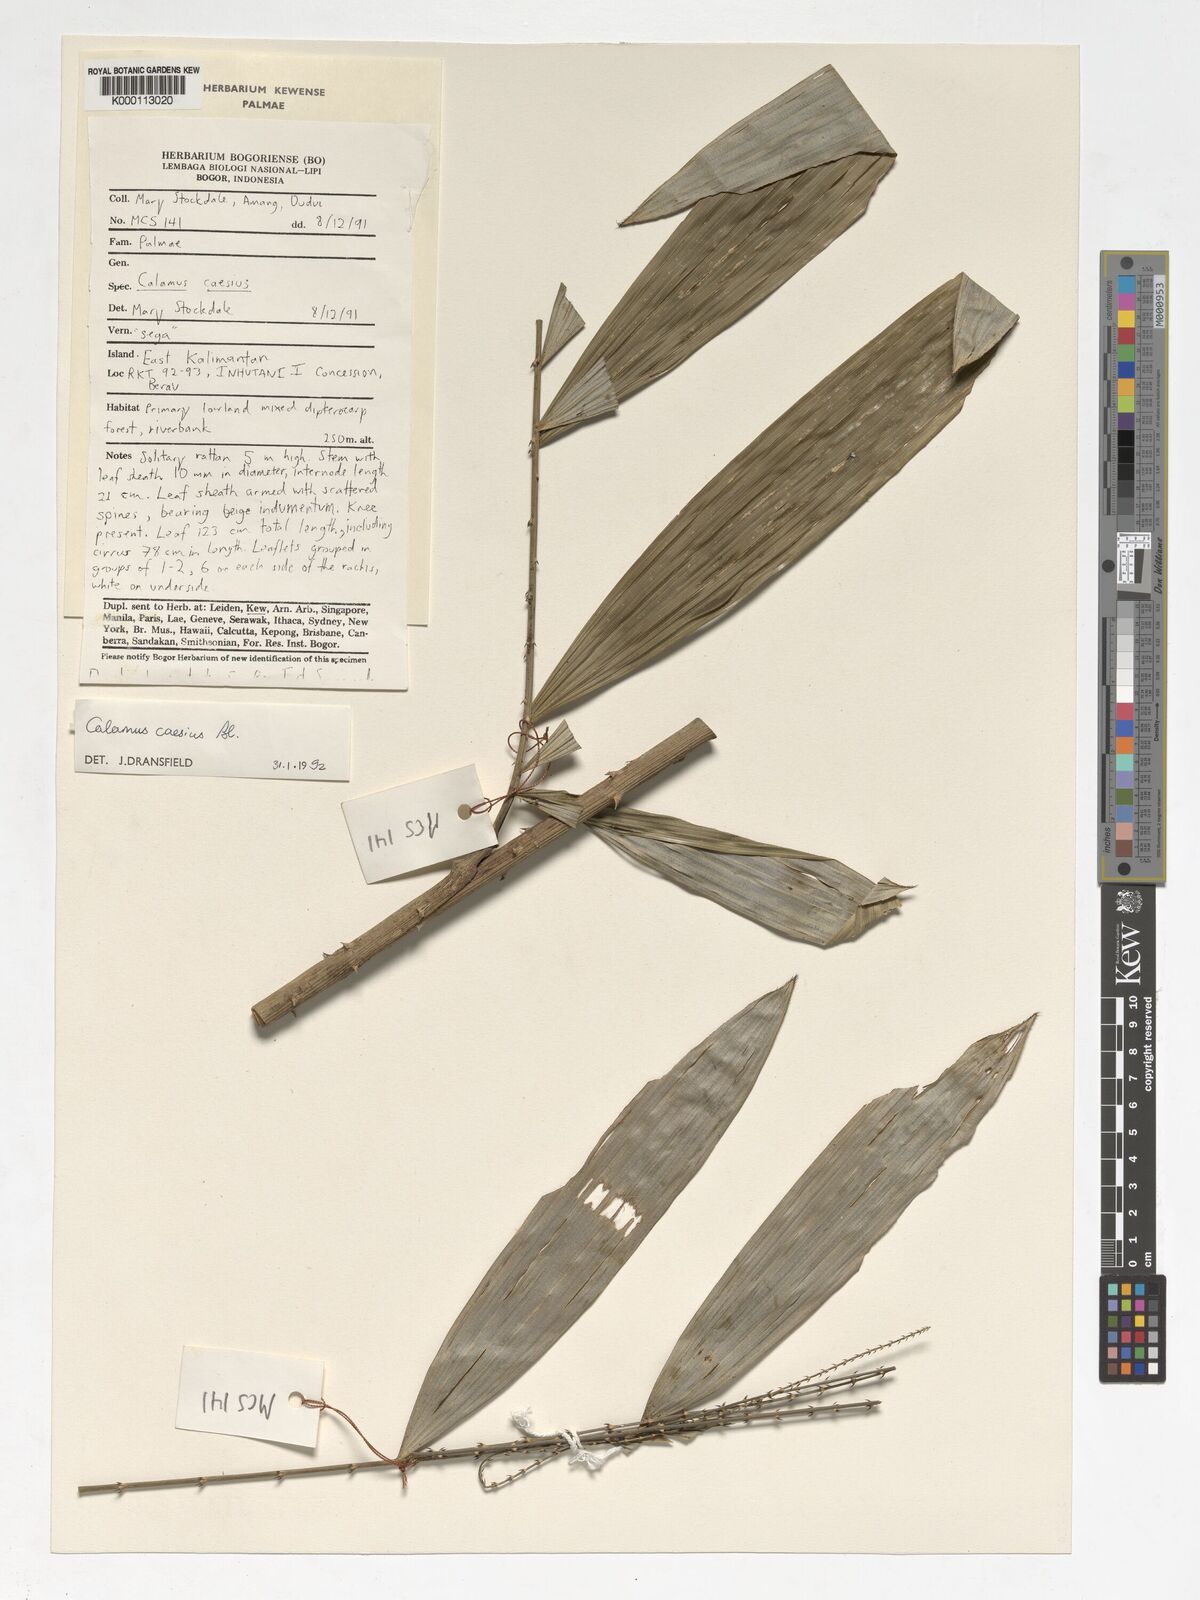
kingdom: Plantae
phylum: Tracheophyta
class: Liliopsida
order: Arecales
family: Arecaceae
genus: Calamus
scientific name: Calamus caesius
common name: Rattan palm
